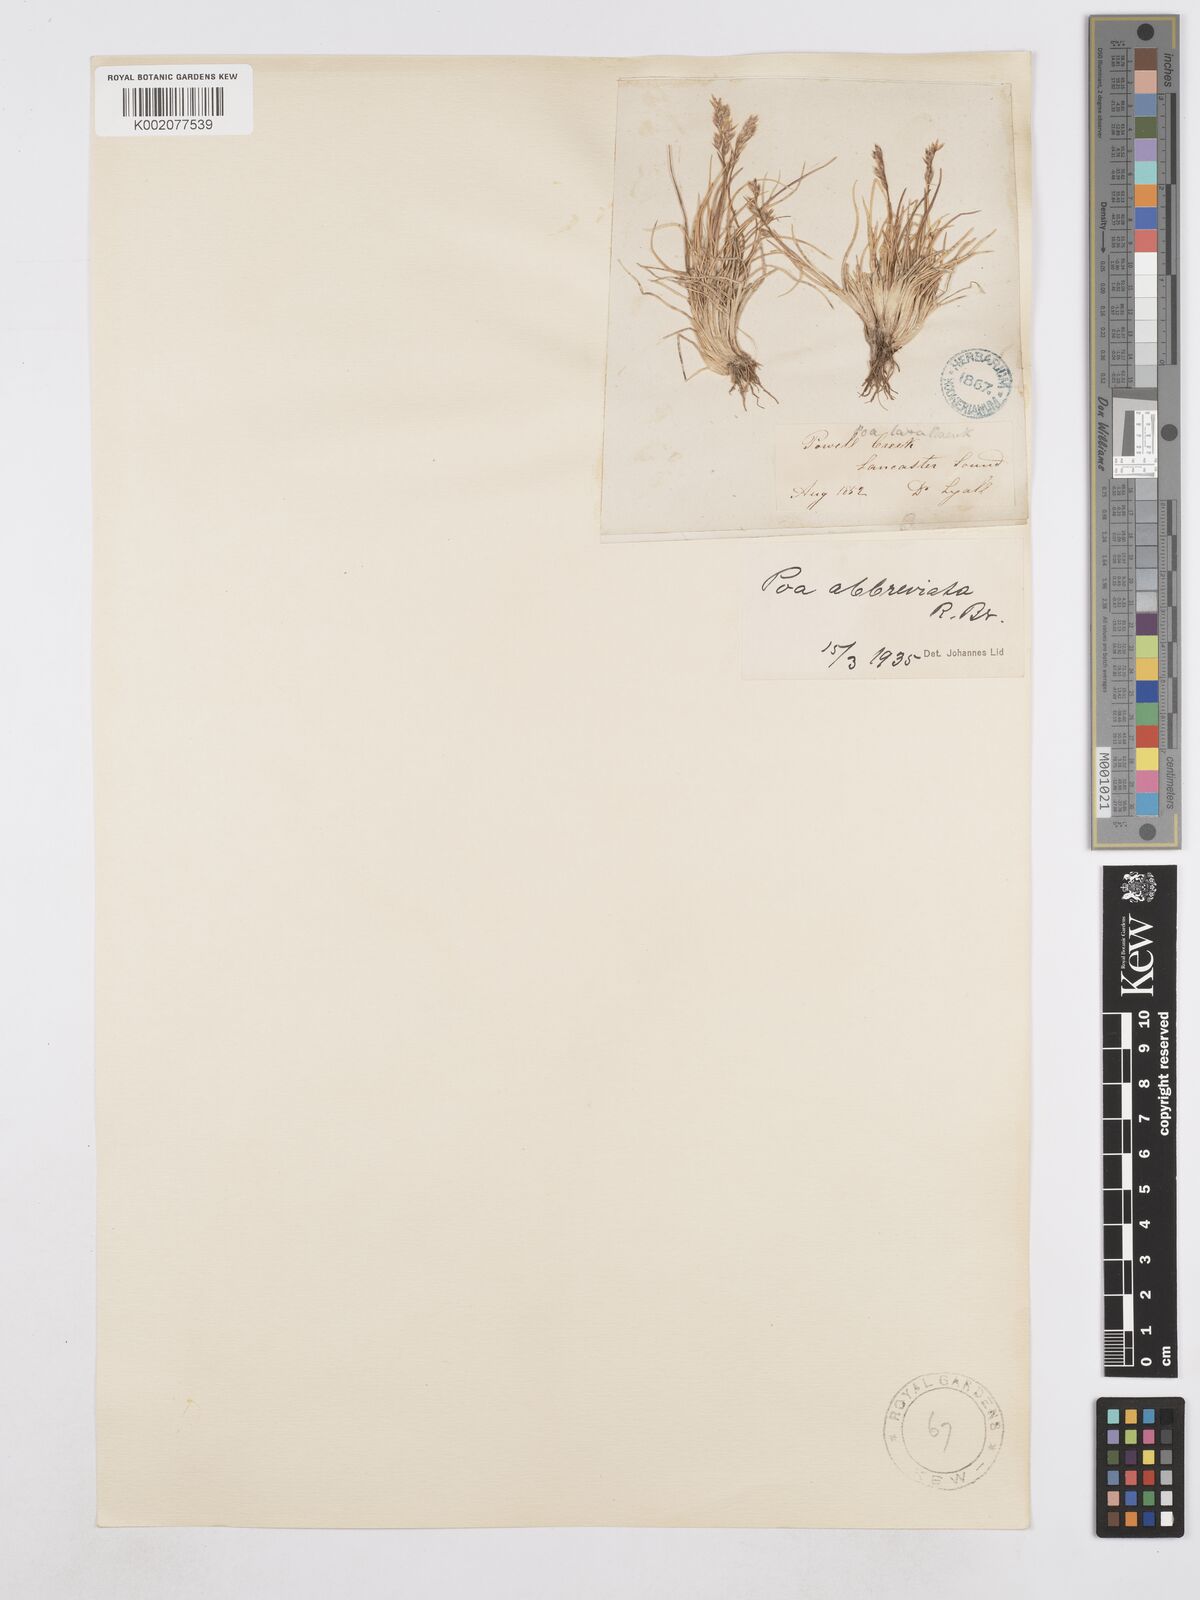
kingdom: Plantae
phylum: Tracheophyta
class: Liliopsida
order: Poales
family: Poaceae
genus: Poa
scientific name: Poa abbreviata
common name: Abbreviated bluegrass
